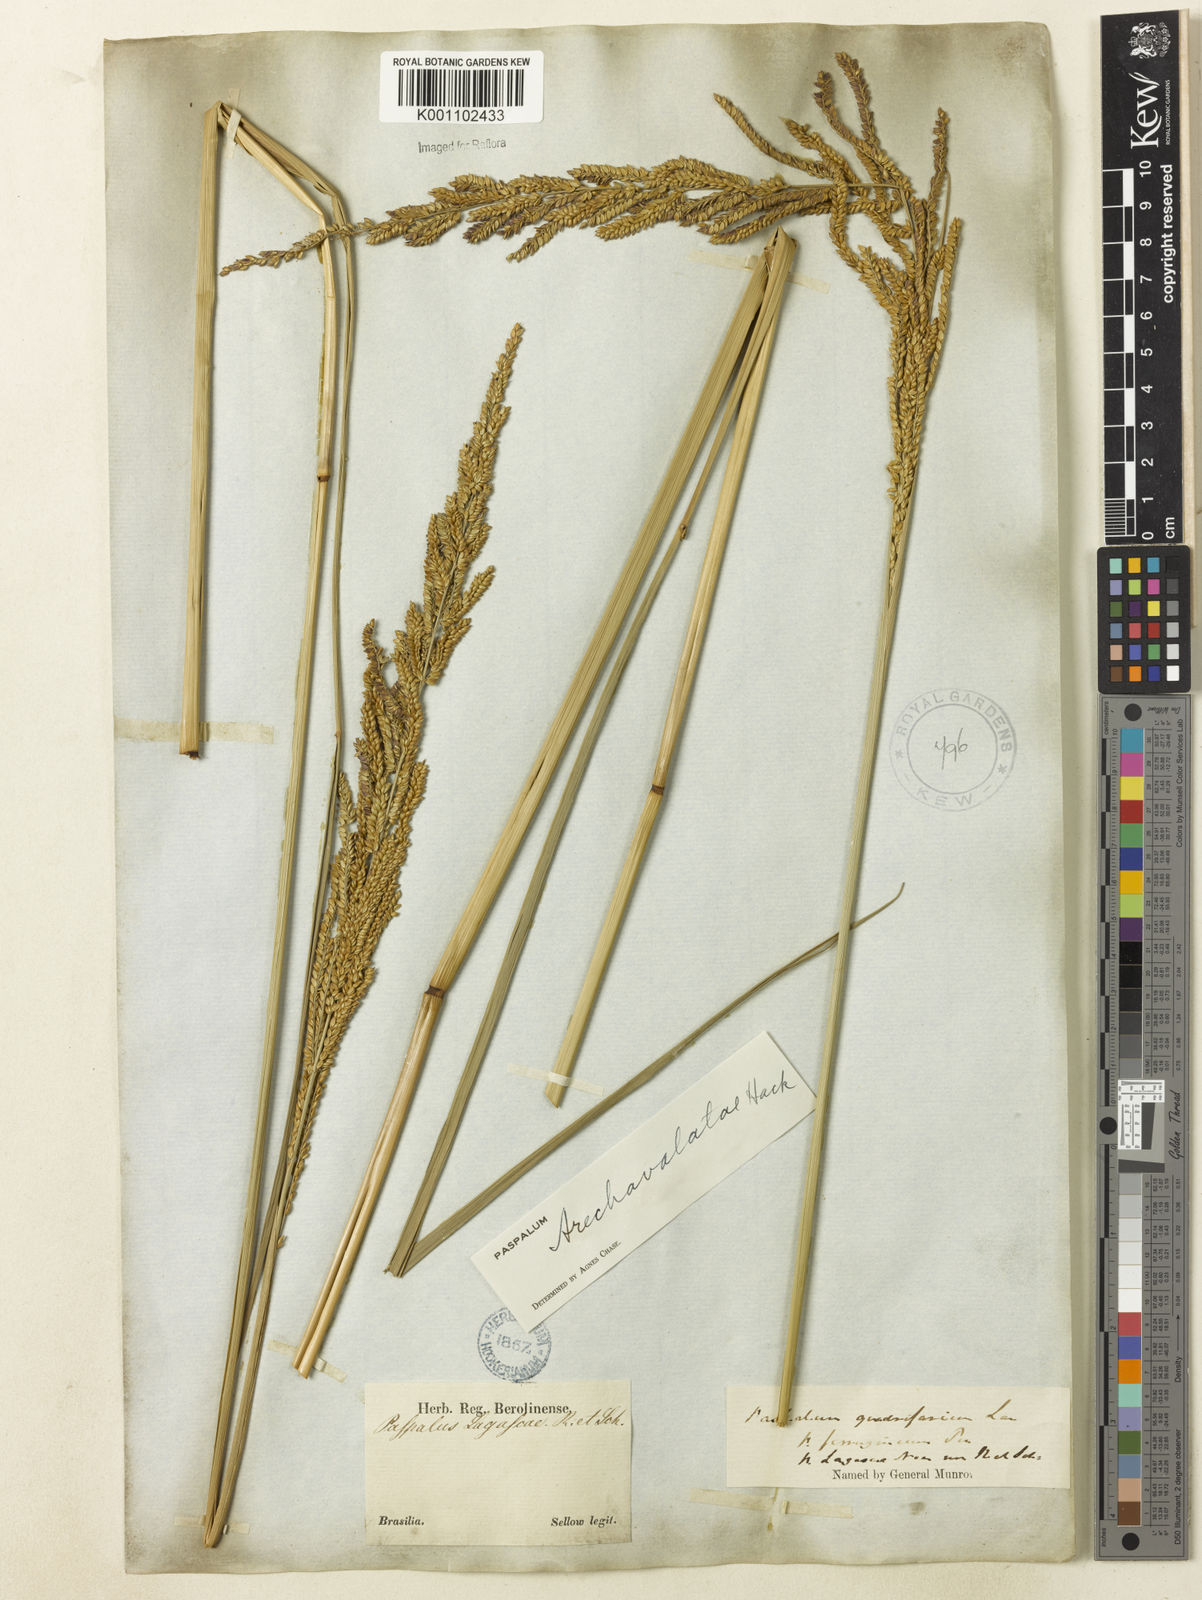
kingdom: Plantae
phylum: Tracheophyta
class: Liliopsida
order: Poales
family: Poaceae
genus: Paspalum
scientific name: Paspalum exaltatum
